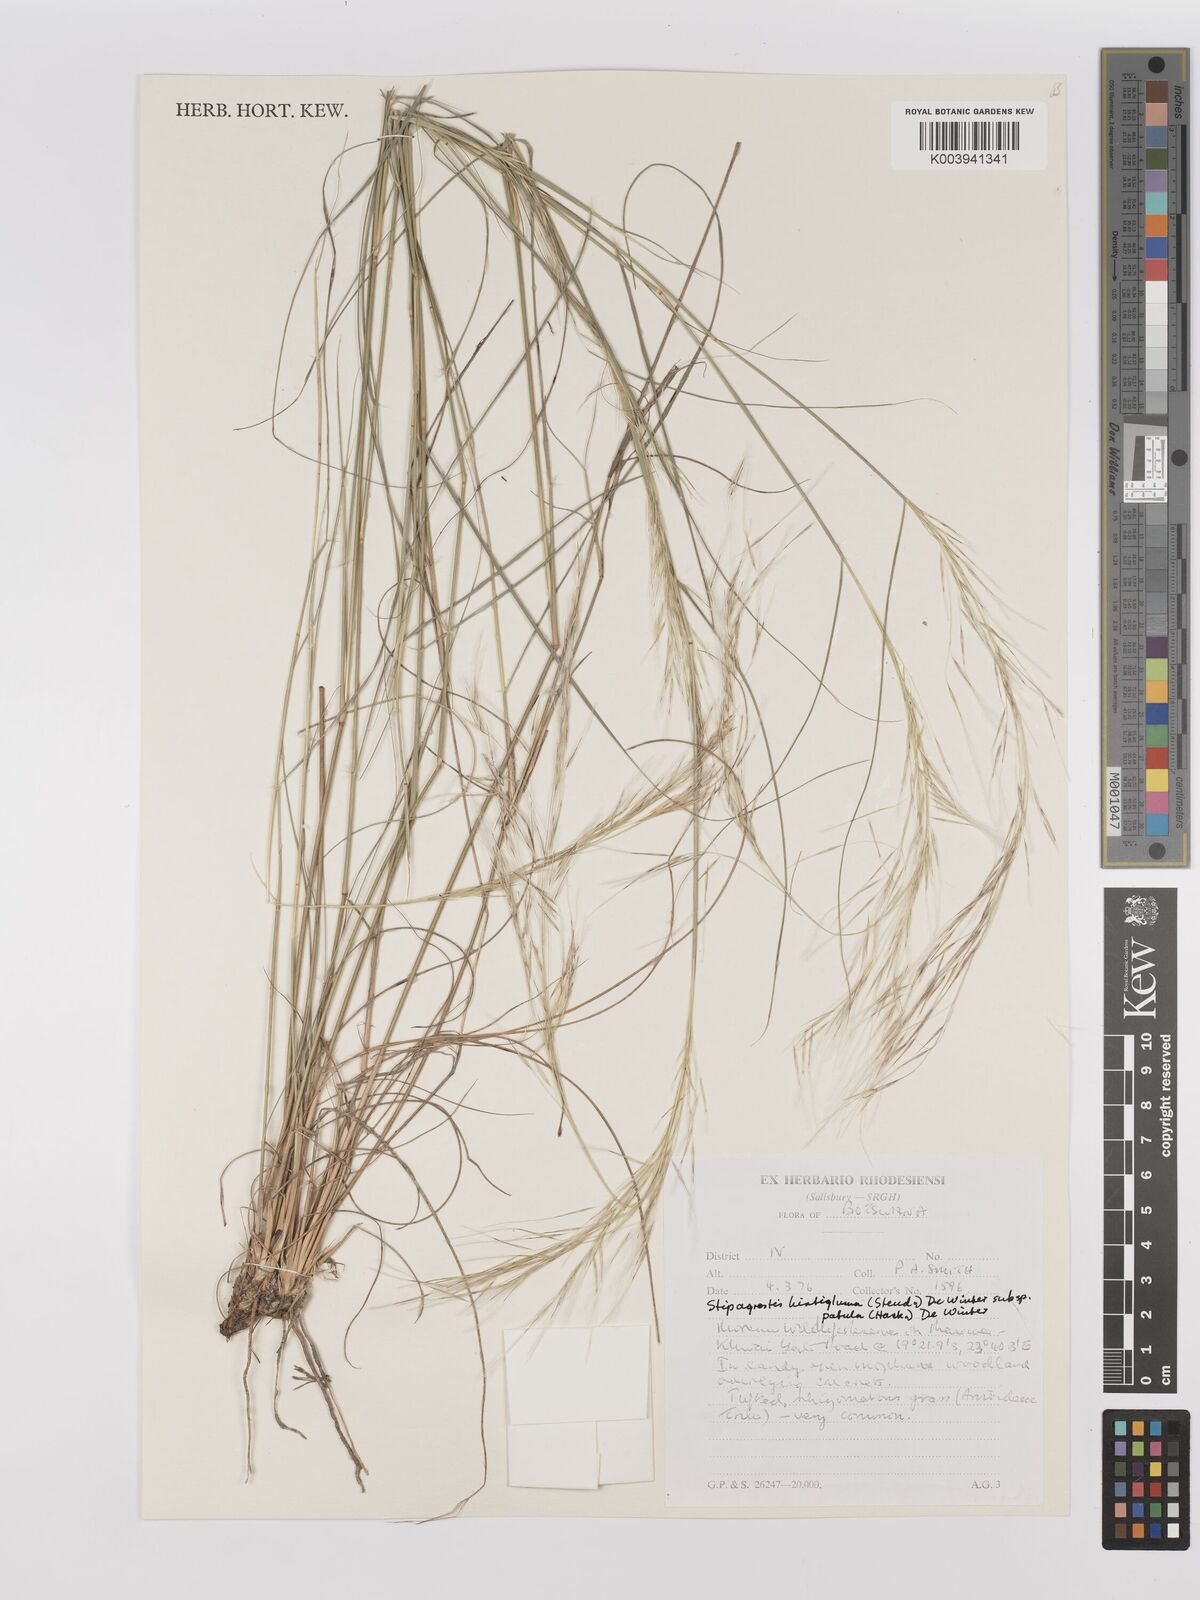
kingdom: Plantae
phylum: Tracheophyta
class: Liliopsida
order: Poales
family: Poaceae
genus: Stipagrostis
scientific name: Stipagrostis hirtigluma
